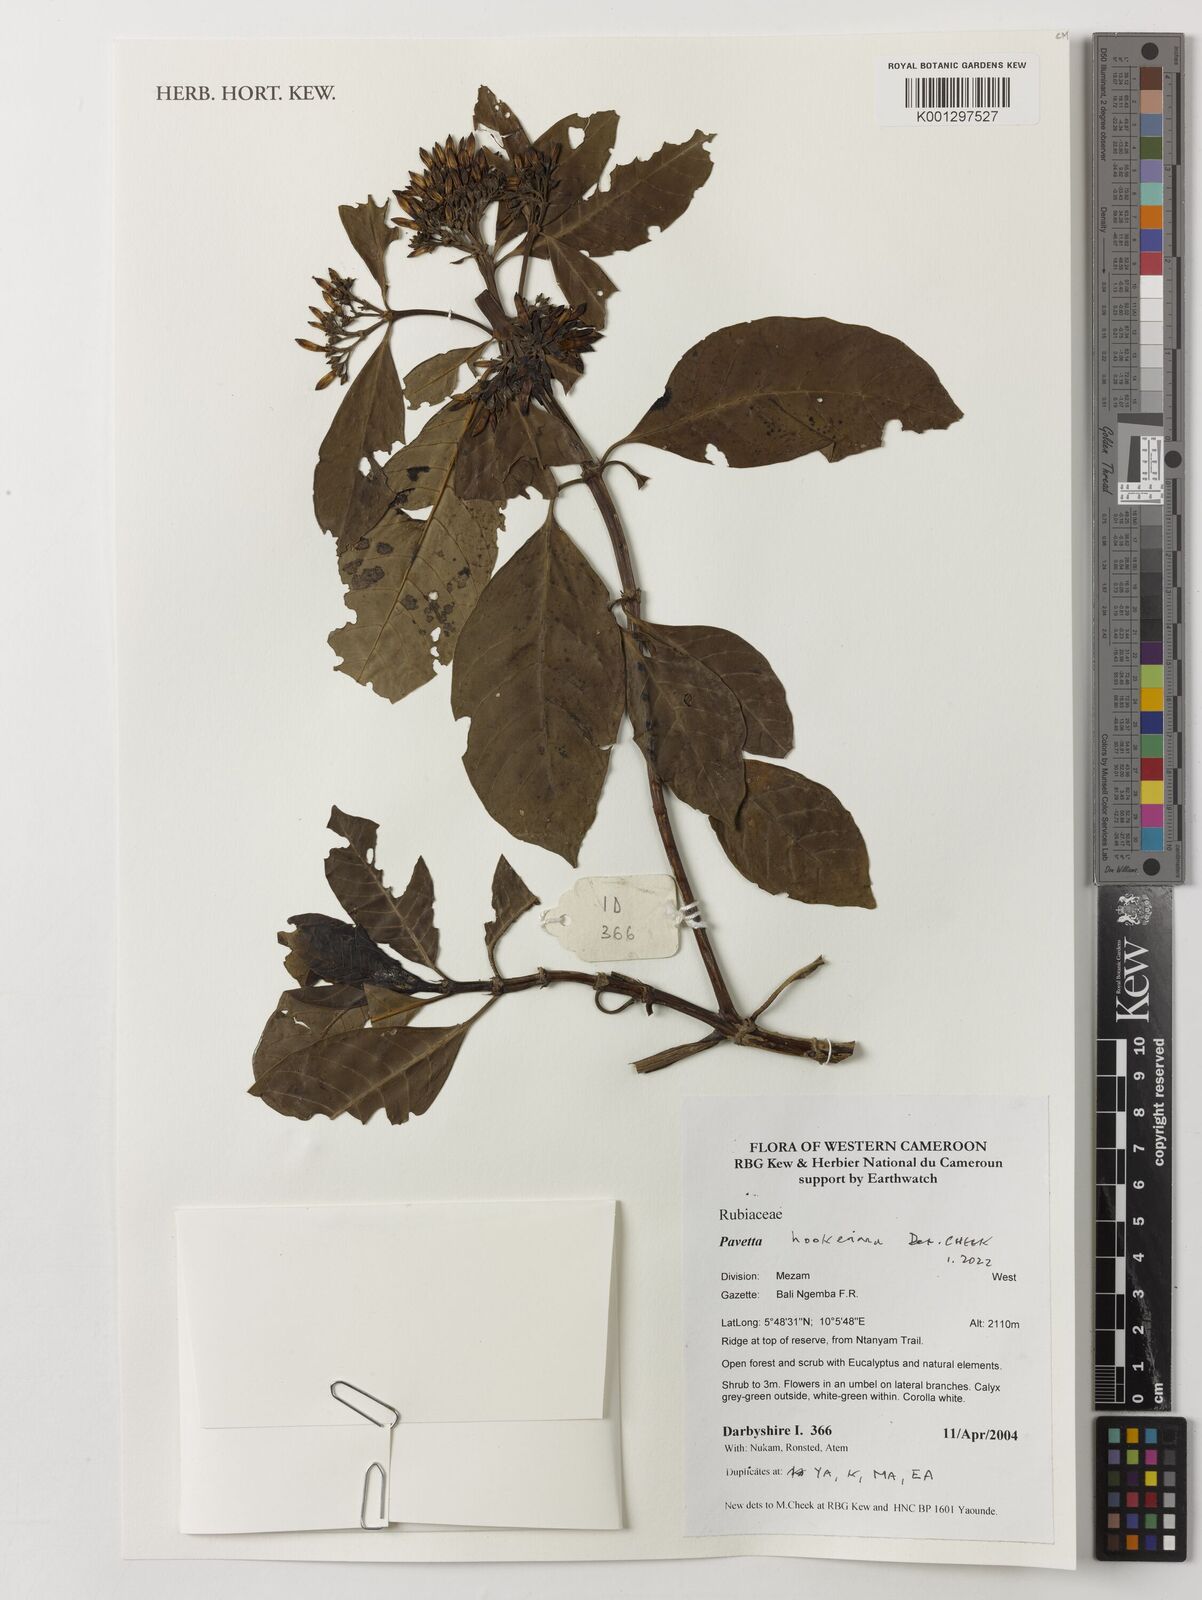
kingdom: Plantae
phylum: Tracheophyta
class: Magnoliopsida
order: Gentianales
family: Rubiaceae
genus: Pavetta
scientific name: Pavetta hookeriana
